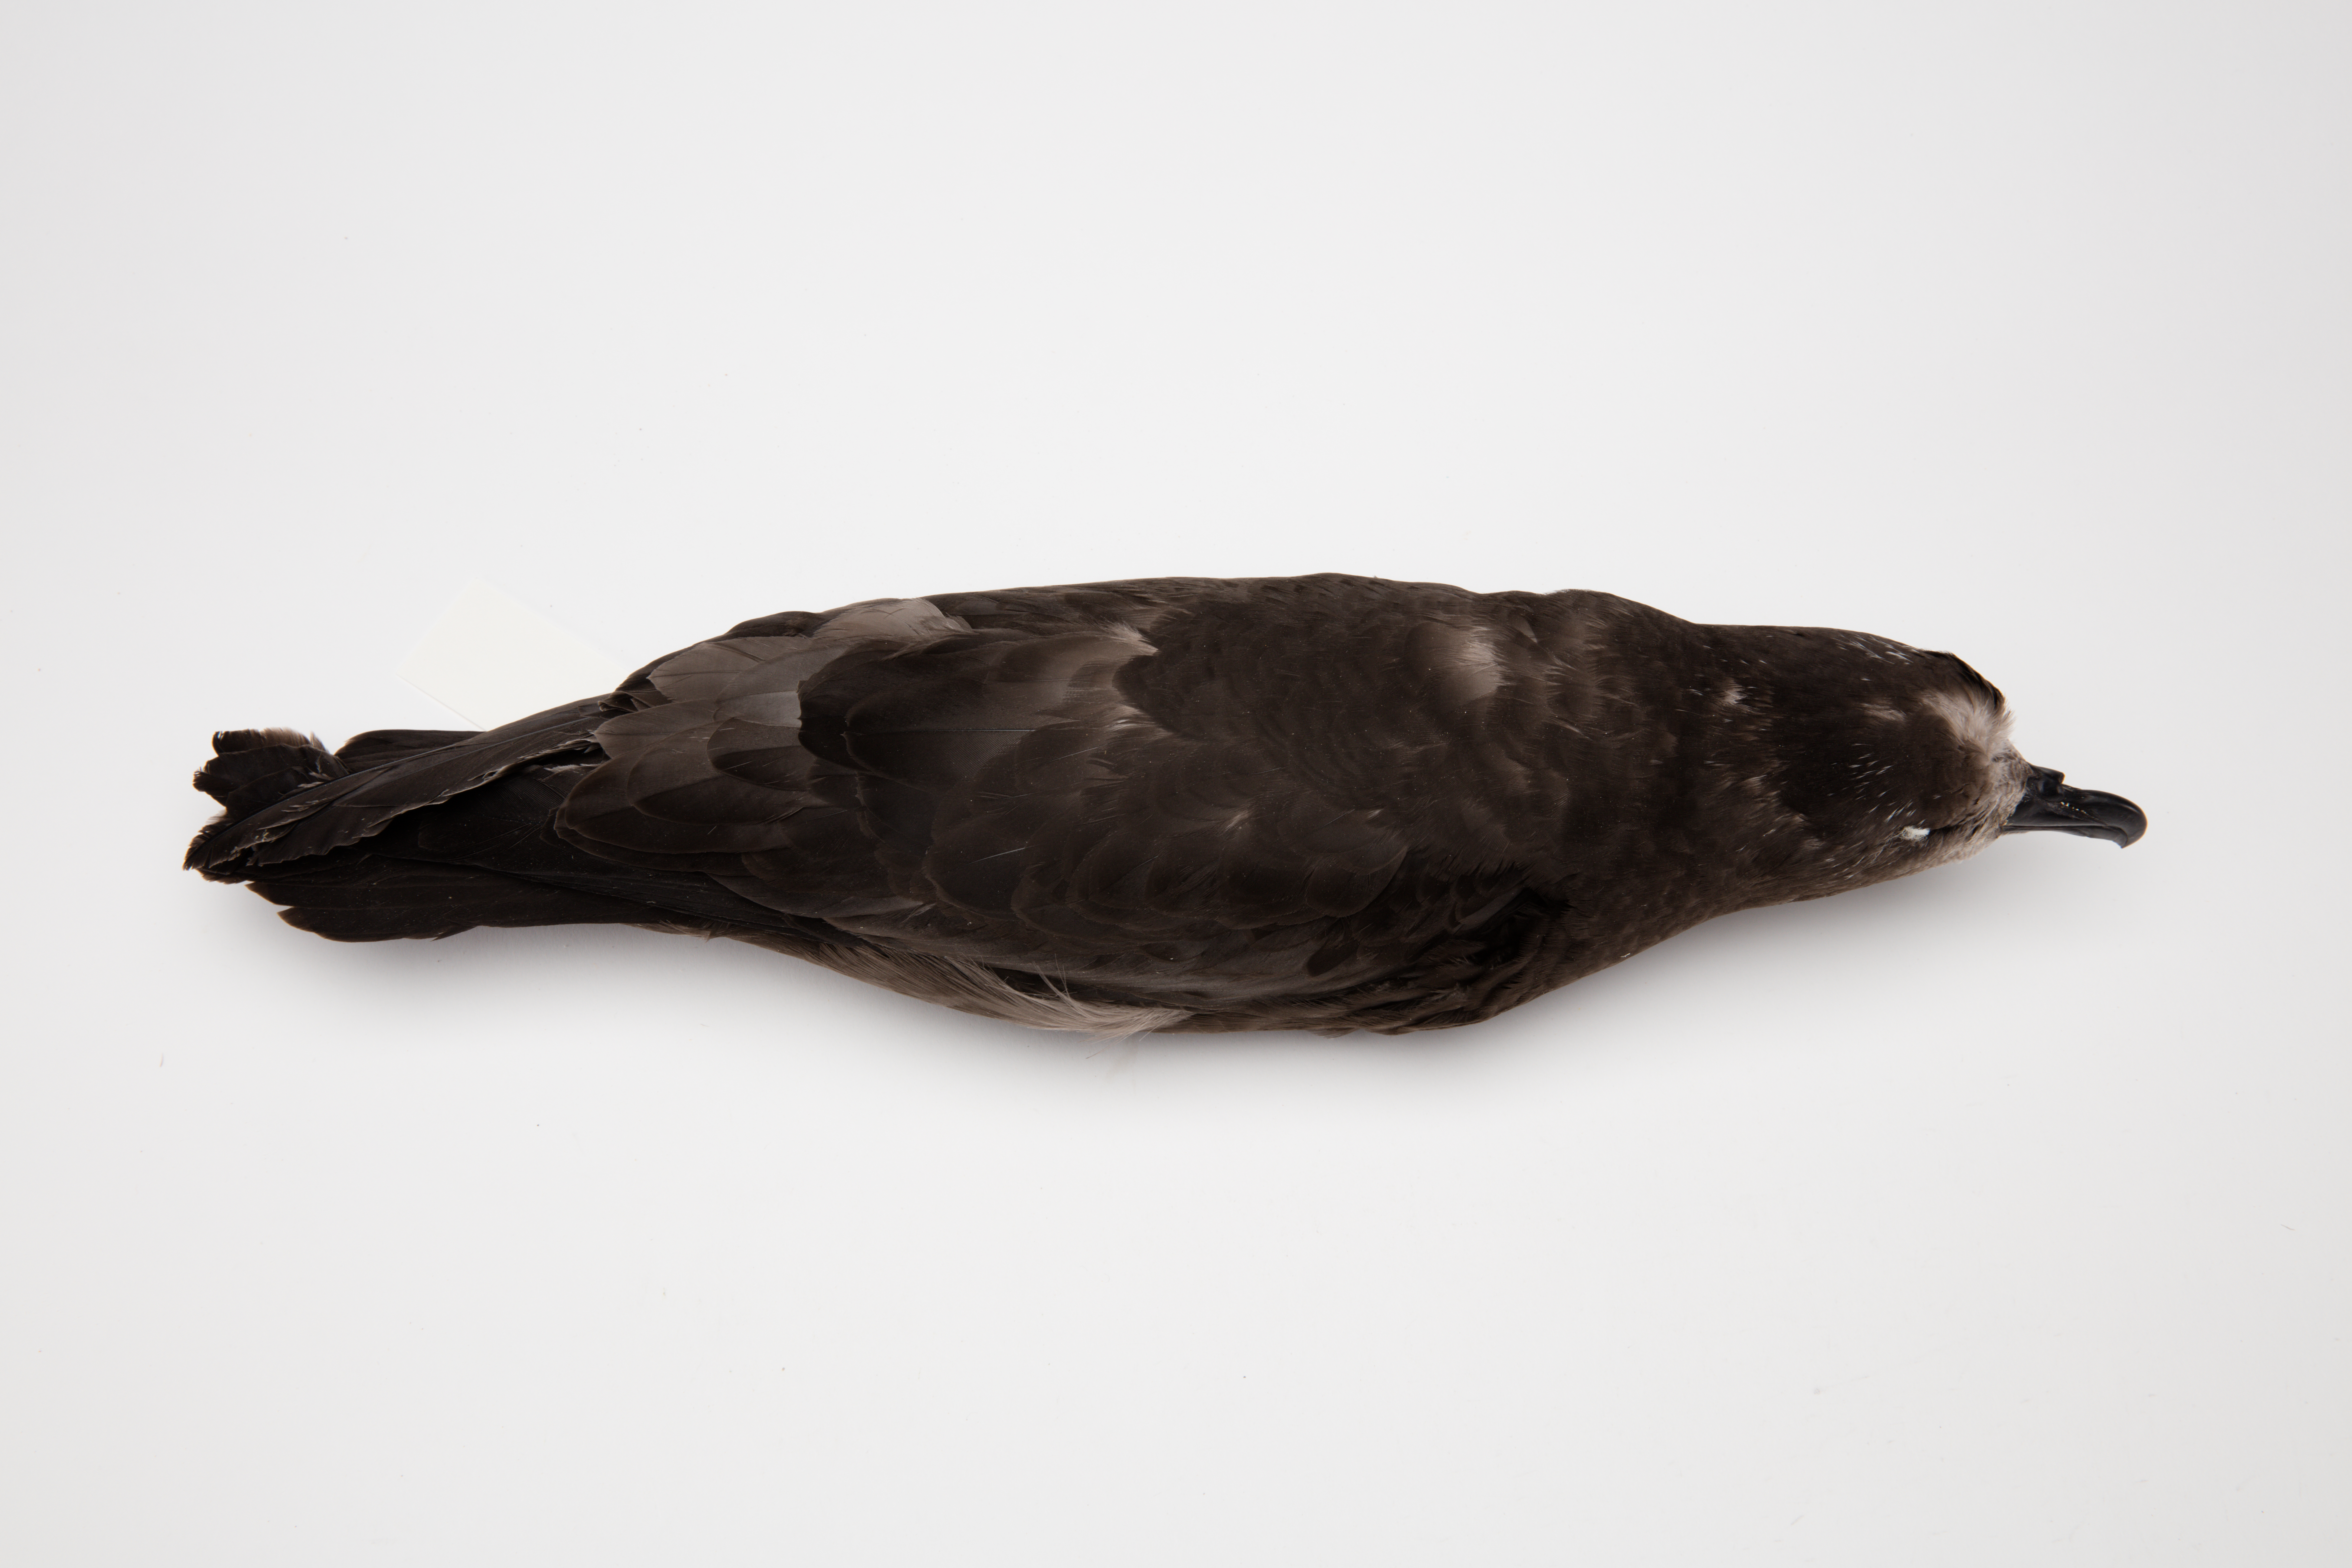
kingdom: Animalia
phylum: Chordata
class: Aves
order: Procellariiformes
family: Procellariidae
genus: Pterodroma
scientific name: Pterodroma macroptera
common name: Great-winged petrel
